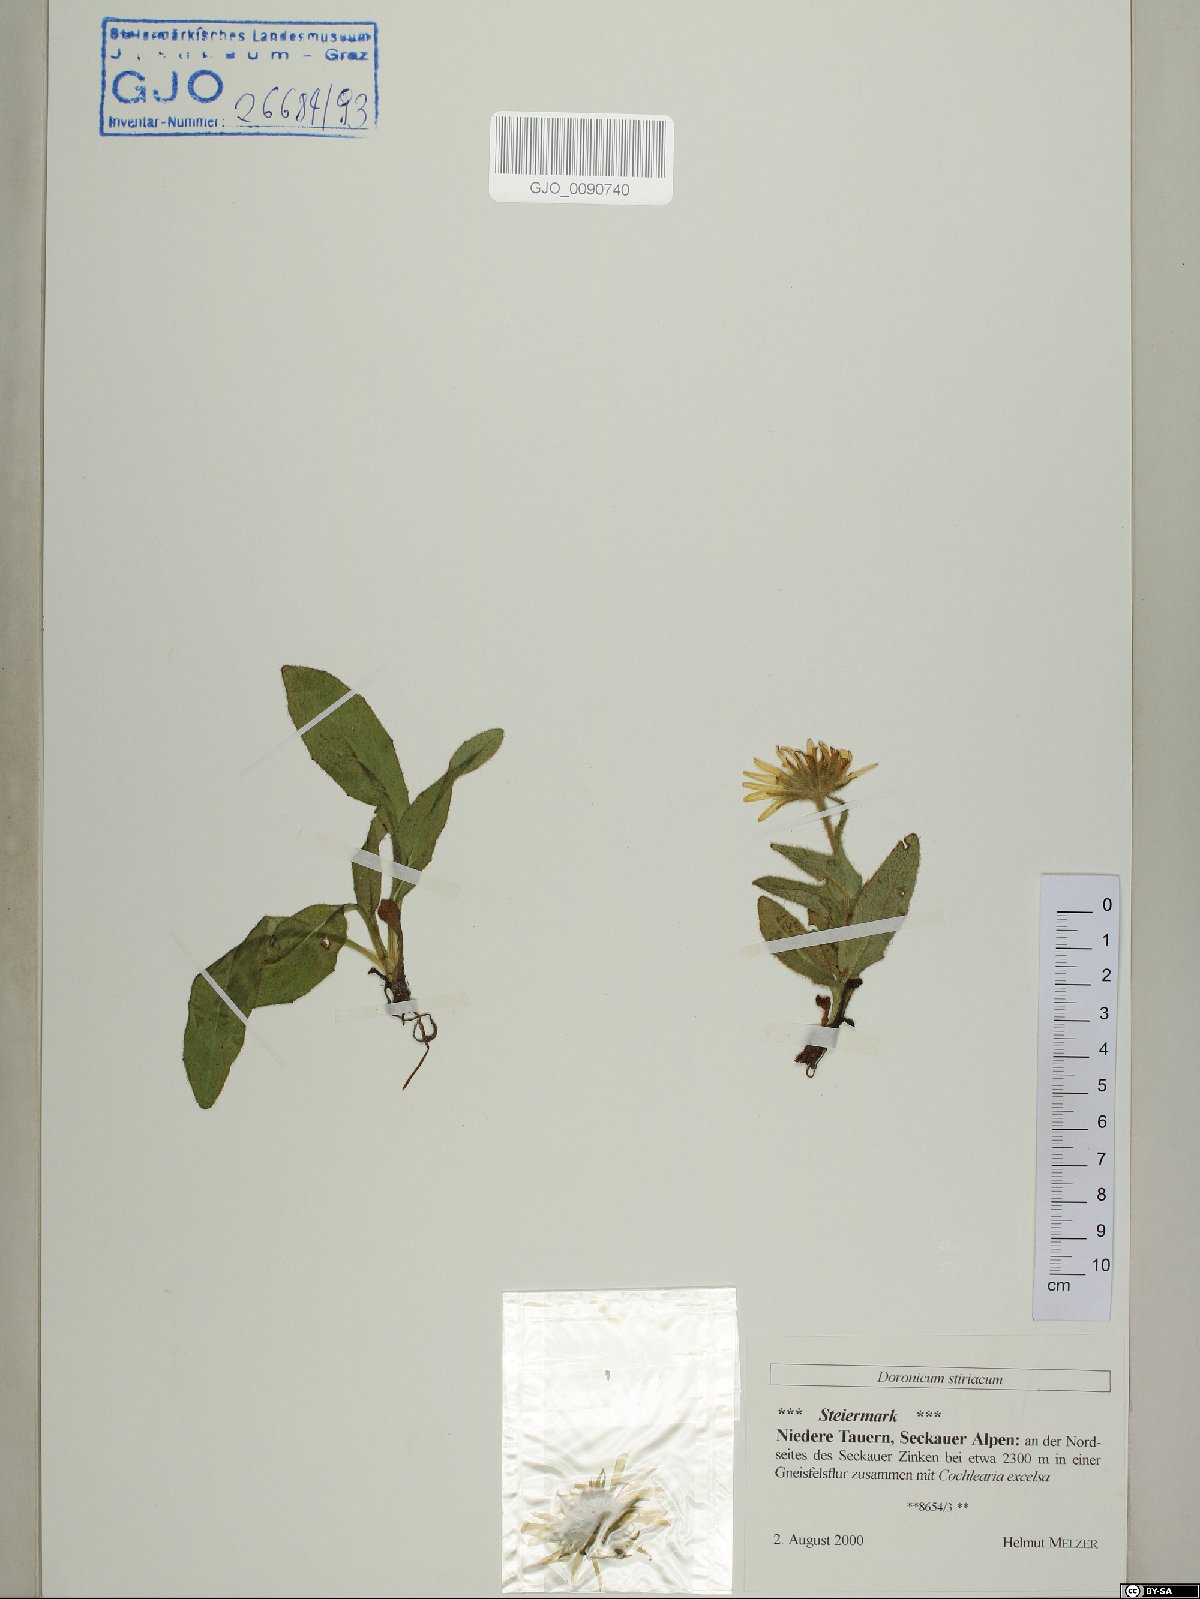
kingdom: Plantae
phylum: Tracheophyta
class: Magnoliopsida
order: Asterales
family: Asteraceae
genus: Doronicum
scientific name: Doronicum clusii
